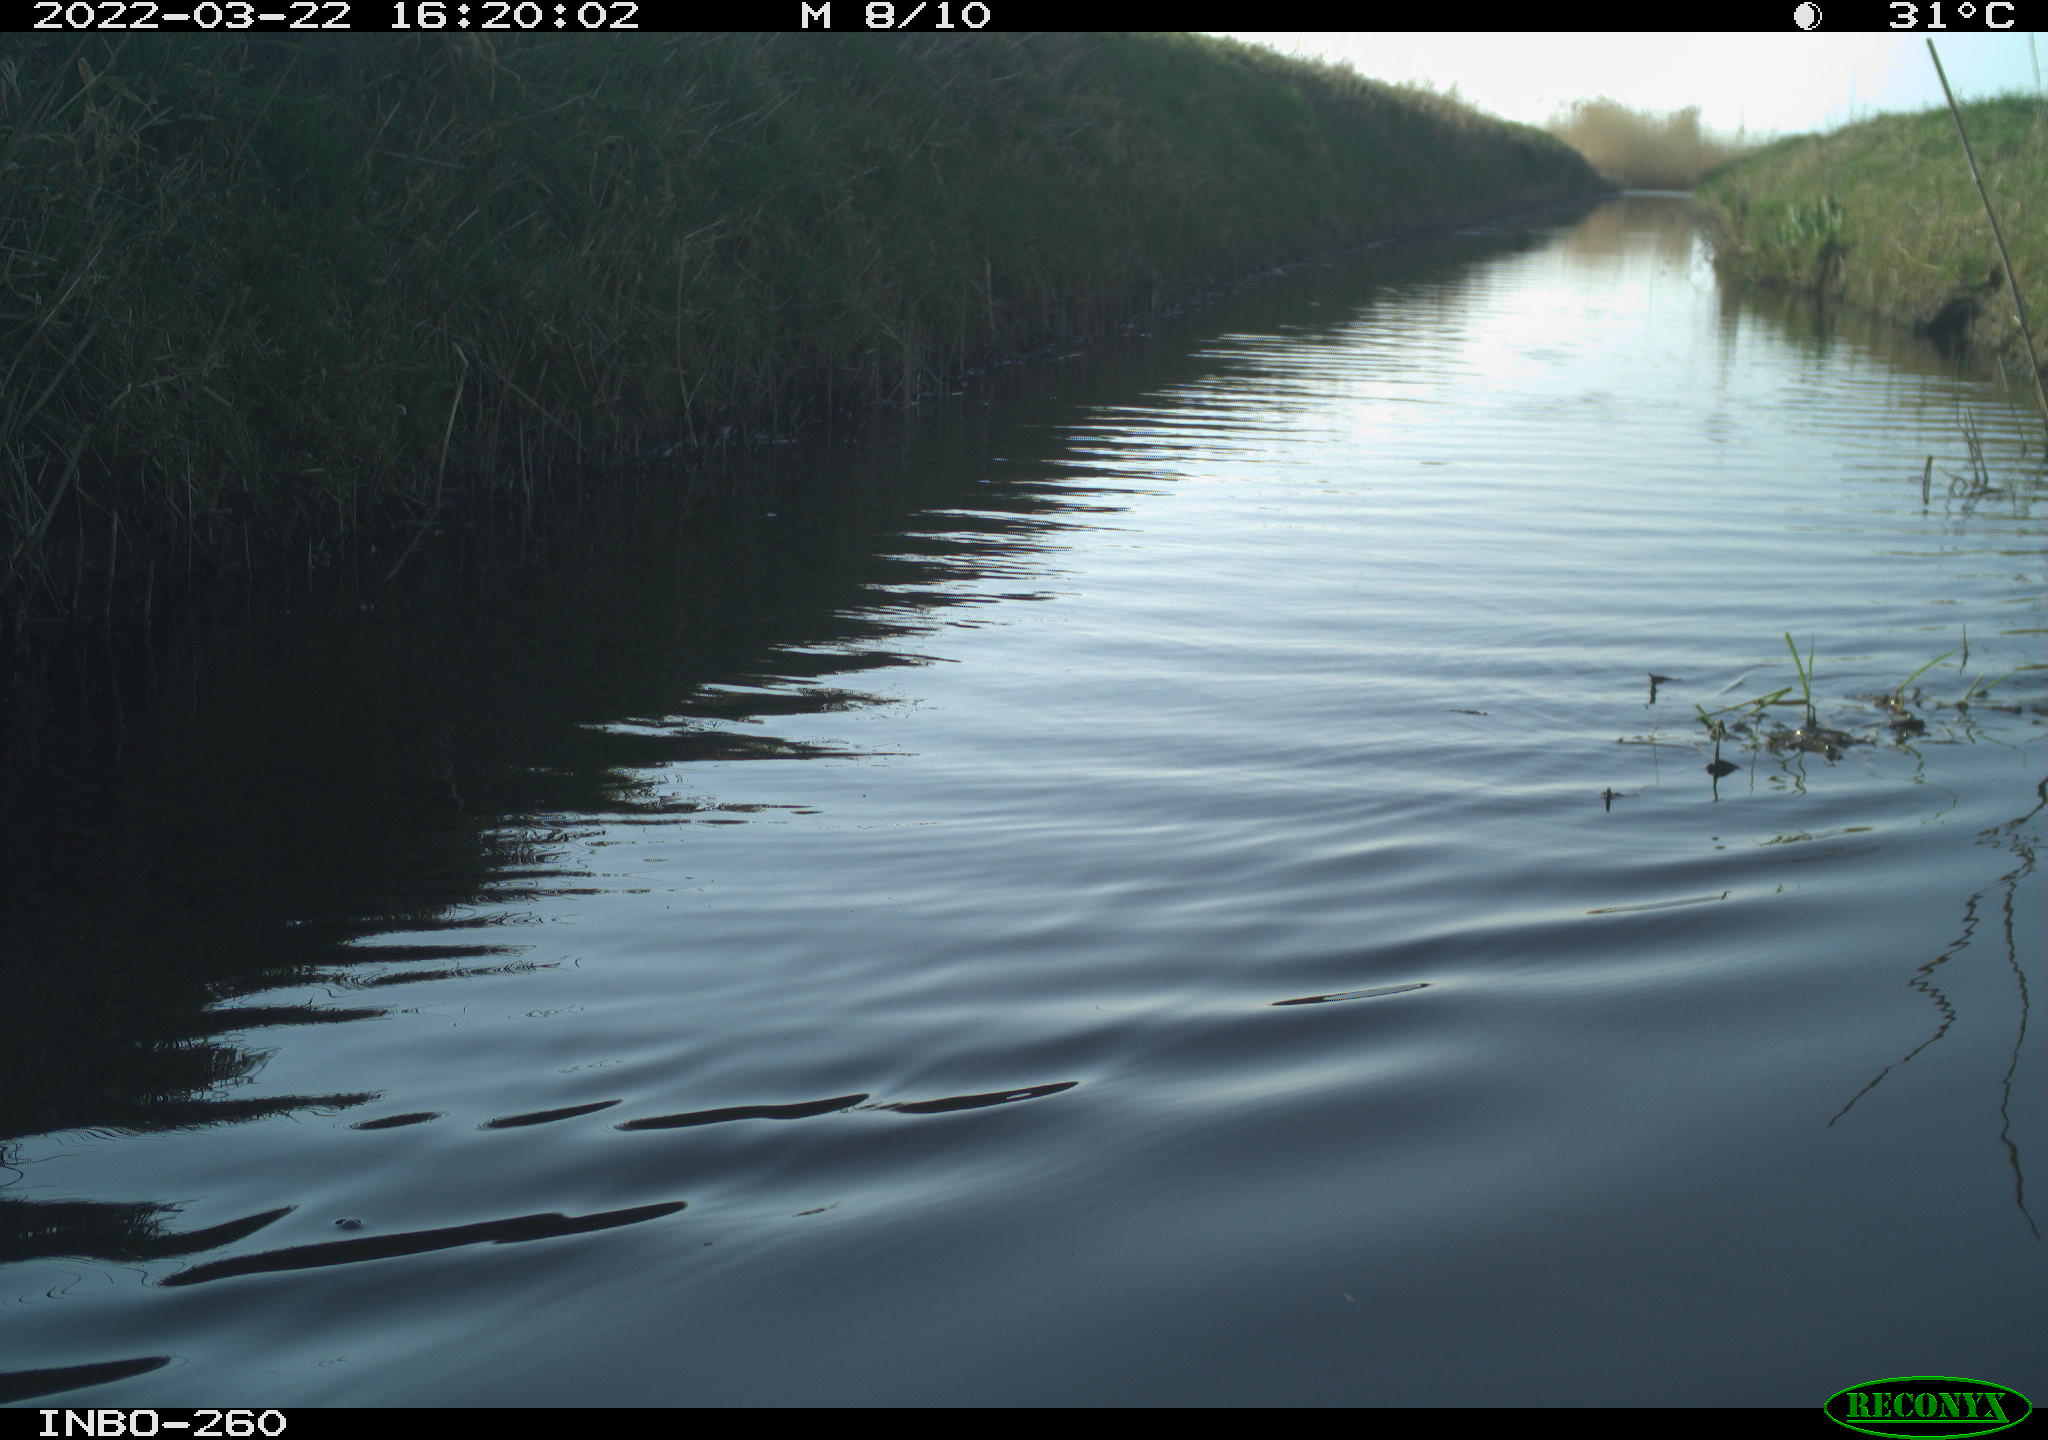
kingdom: Animalia
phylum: Chordata
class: Aves
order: Gruiformes
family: Rallidae
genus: Fulica
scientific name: Fulica atra
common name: Eurasian coot
